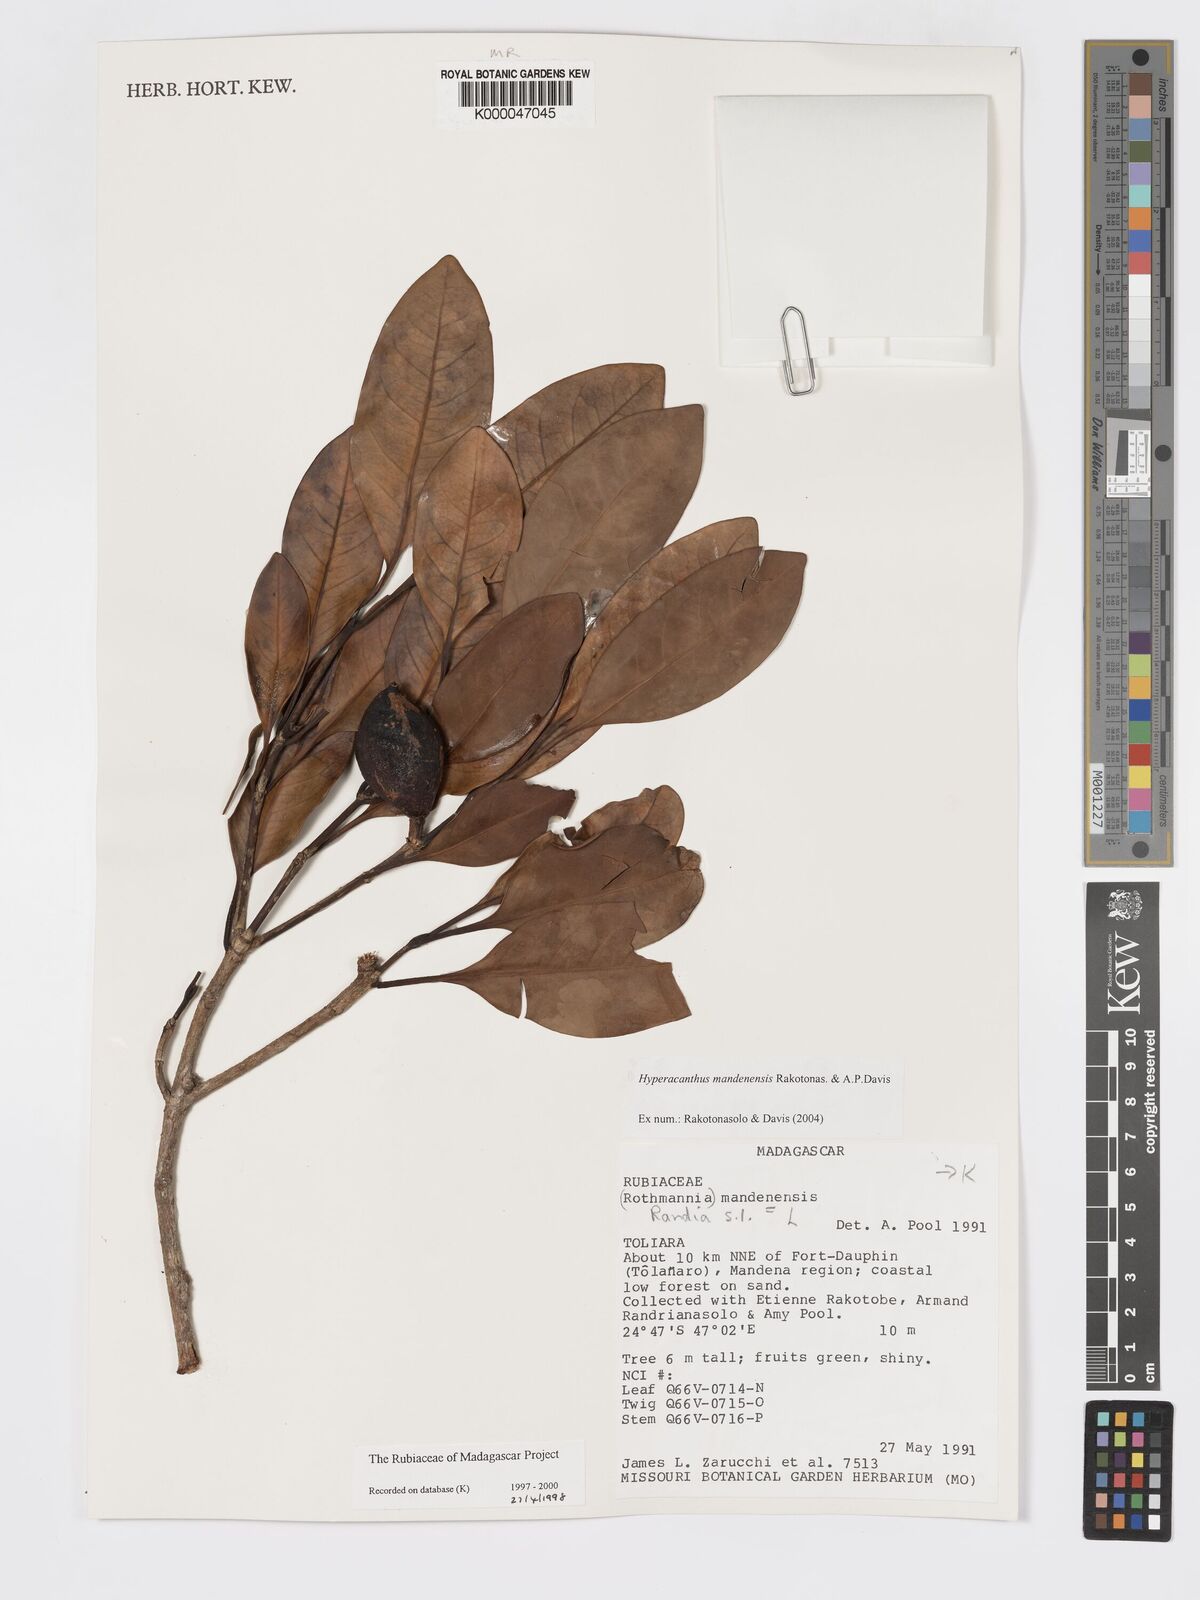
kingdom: Plantae
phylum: Tracheophyta
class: Magnoliopsida
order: Gentianales
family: Rubiaceae
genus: Hyperacanthus
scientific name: Hyperacanthus mandenensis
